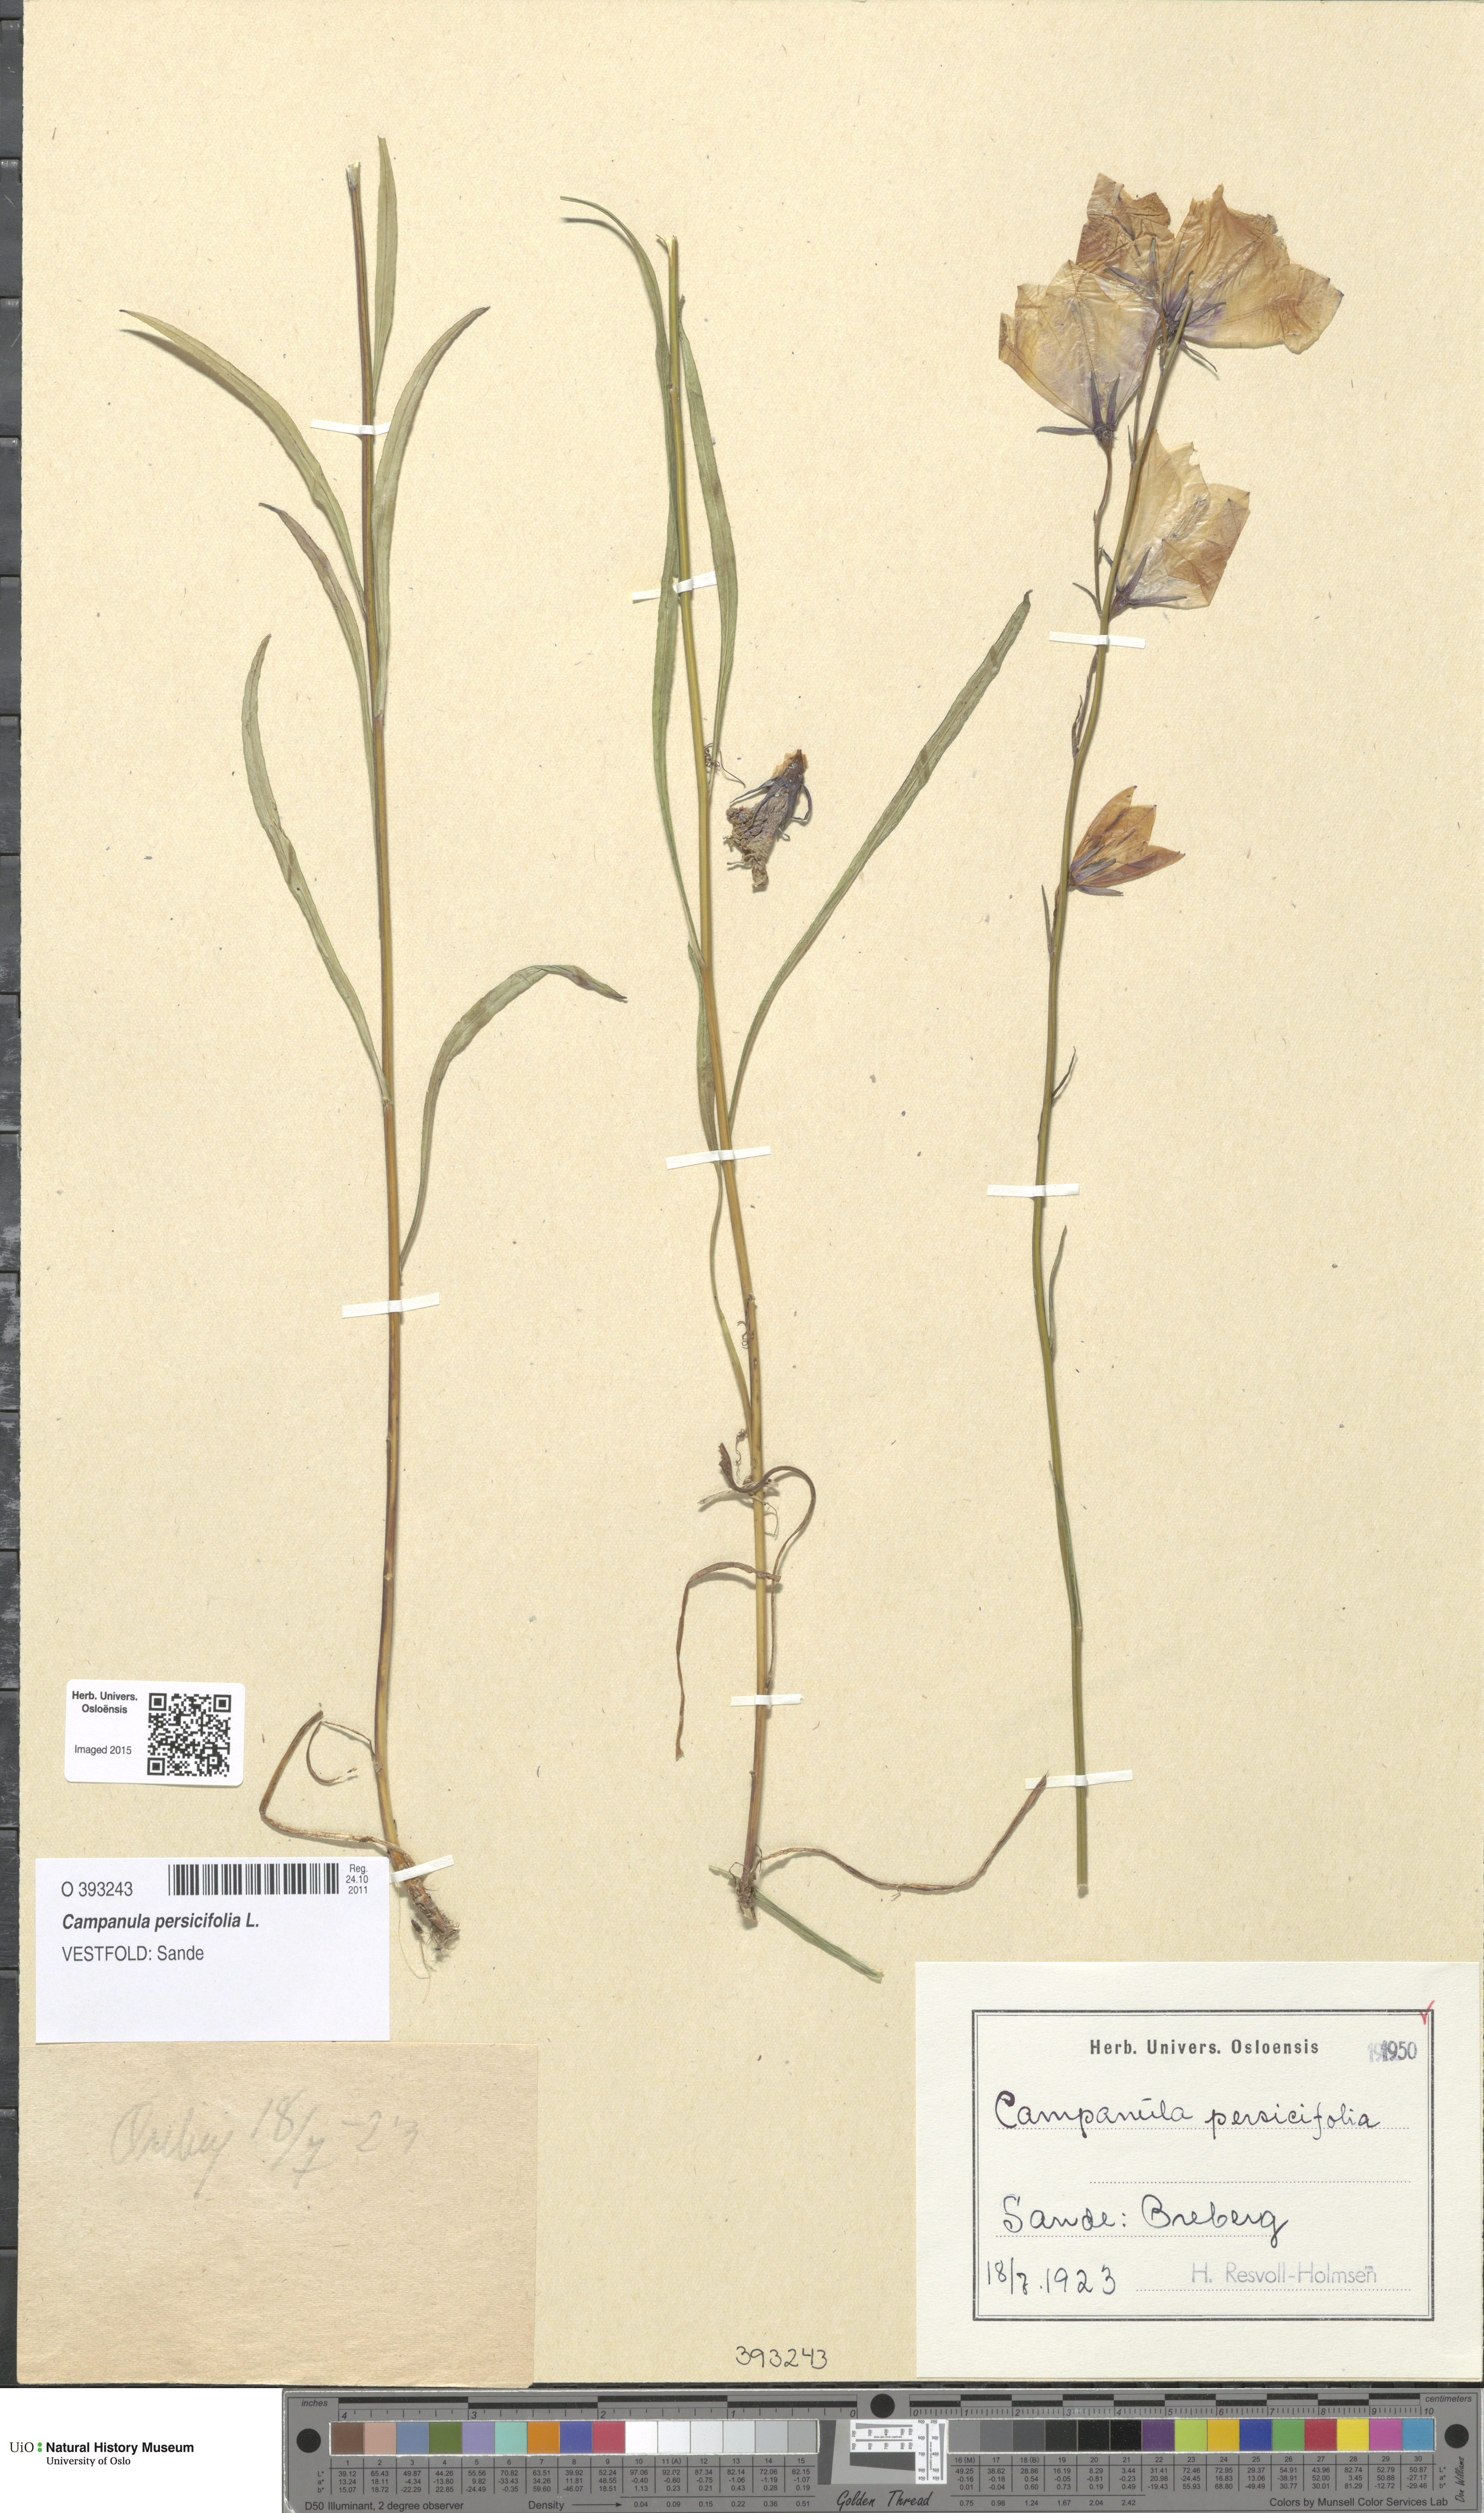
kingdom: Plantae
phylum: Tracheophyta
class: Magnoliopsida
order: Asterales
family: Campanulaceae
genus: Campanula
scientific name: Campanula persicifolia
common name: Peach-leaved bellflower
